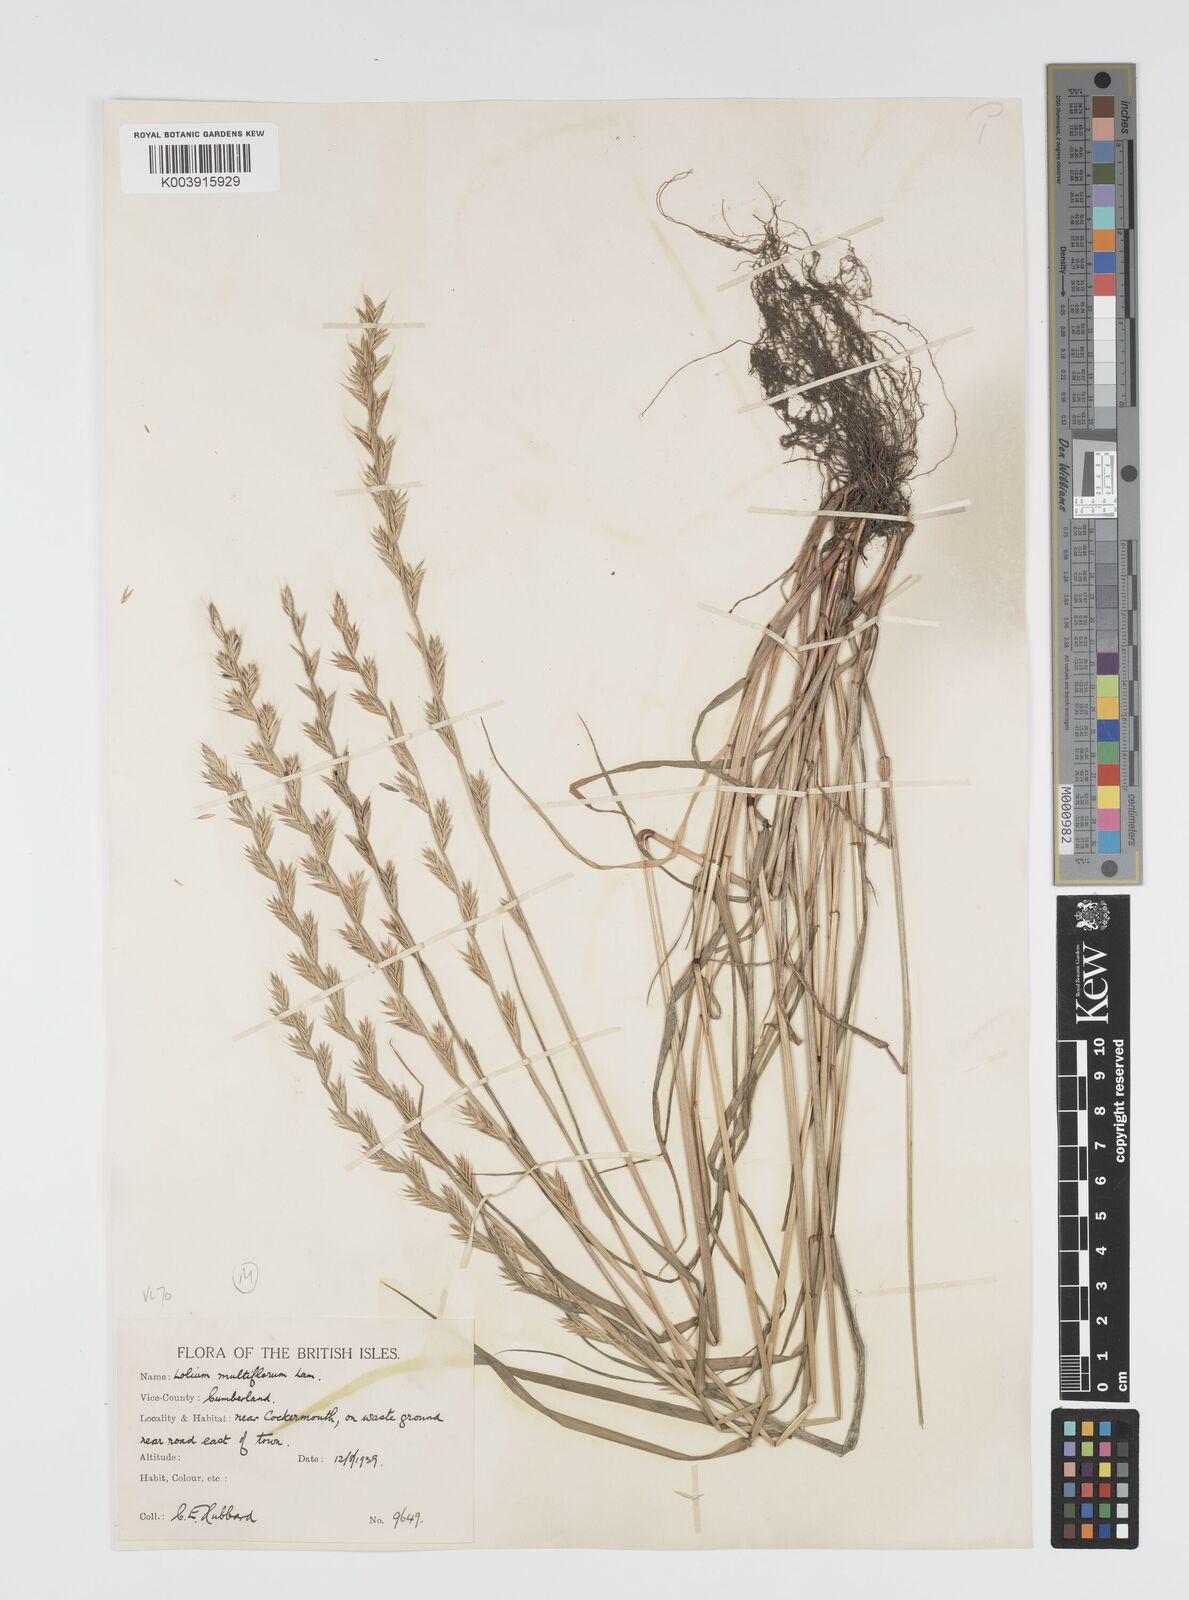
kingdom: Plantae
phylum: Tracheophyta
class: Liliopsida
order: Poales
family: Poaceae
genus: Lolium
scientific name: Lolium multiflorum
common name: Annual ryegrass
